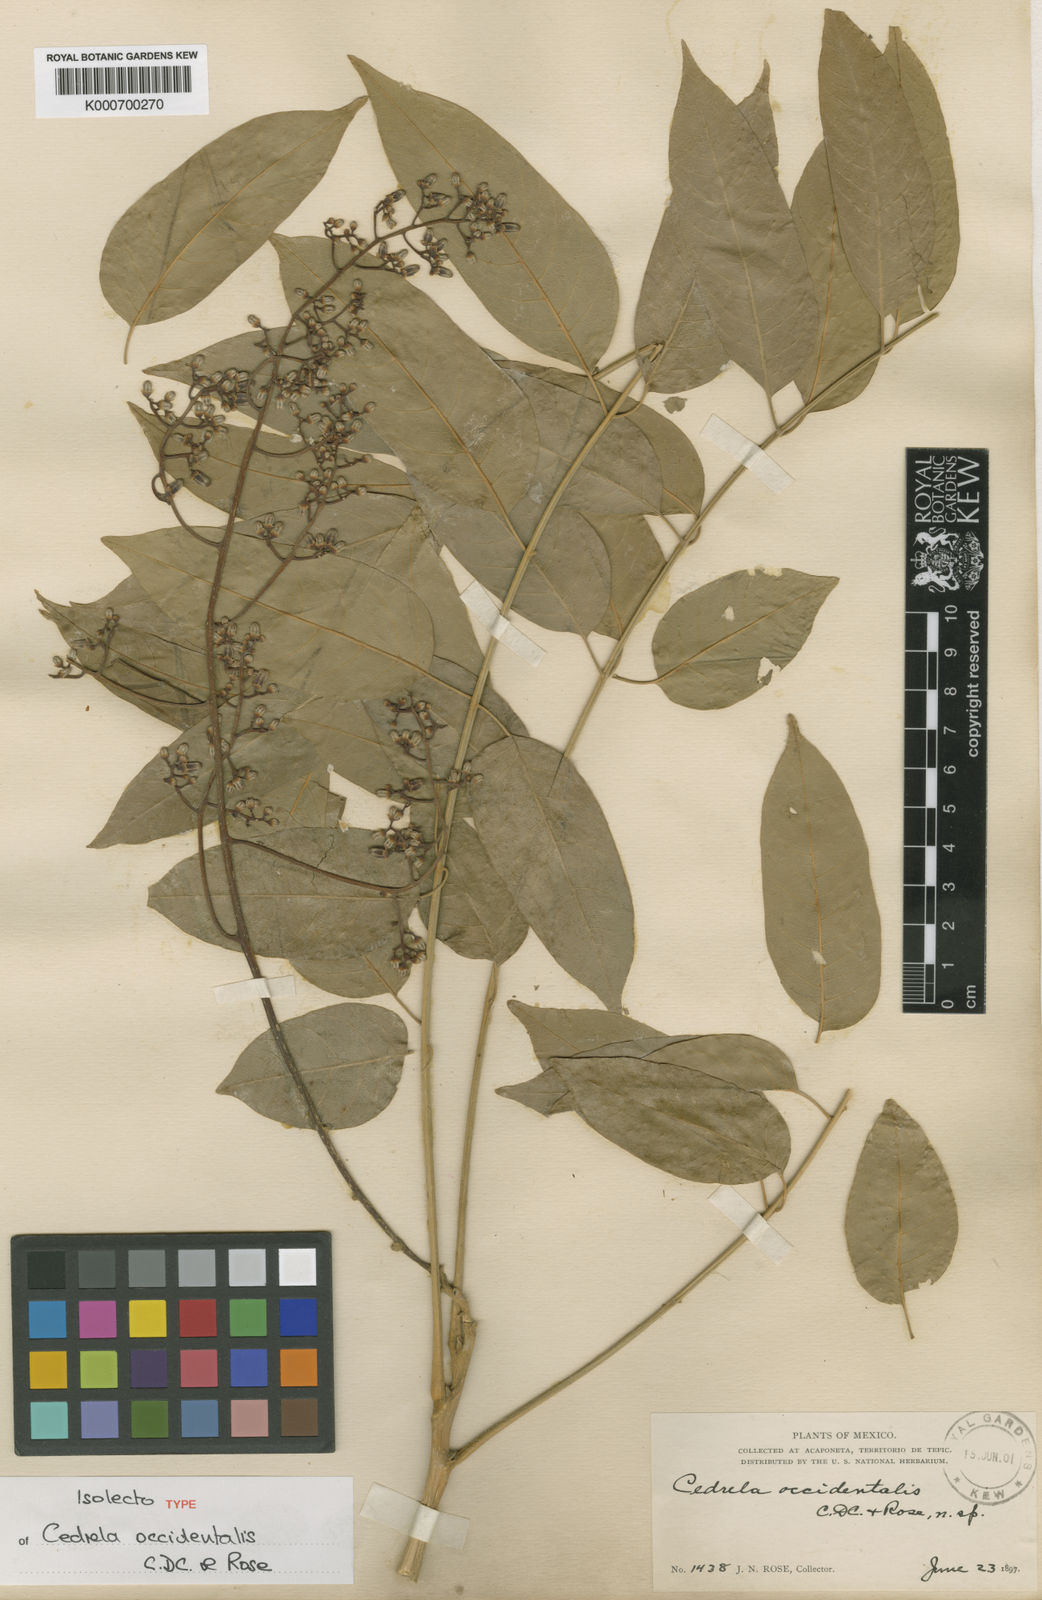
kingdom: Plantae
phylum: Tracheophyta
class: Magnoliopsida
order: Sapindales
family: Meliaceae
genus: Cedrela
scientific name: Cedrela odorata
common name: Red cedar
